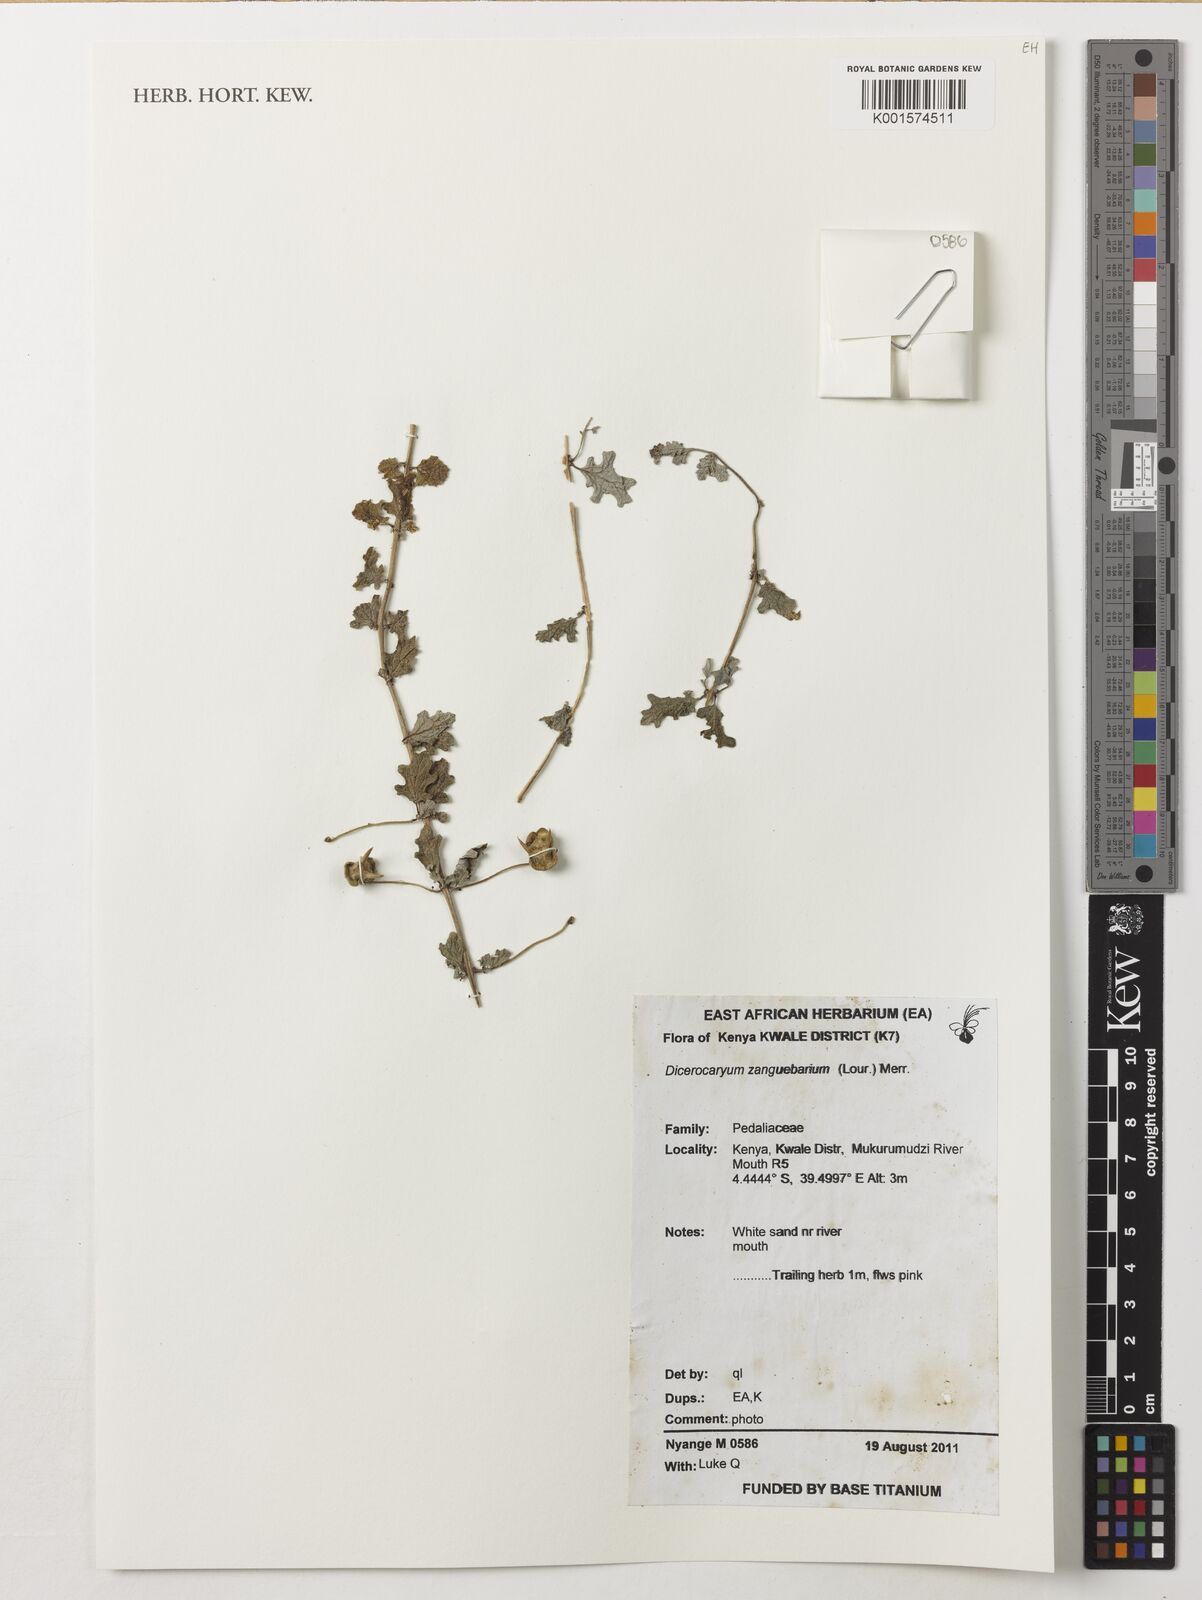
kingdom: Plantae
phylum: Tracheophyta
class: Magnoliopsida
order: Lamiales
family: Pedaliaceae
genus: Dicerocaryum
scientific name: Dicerocaryum zanguebarium
